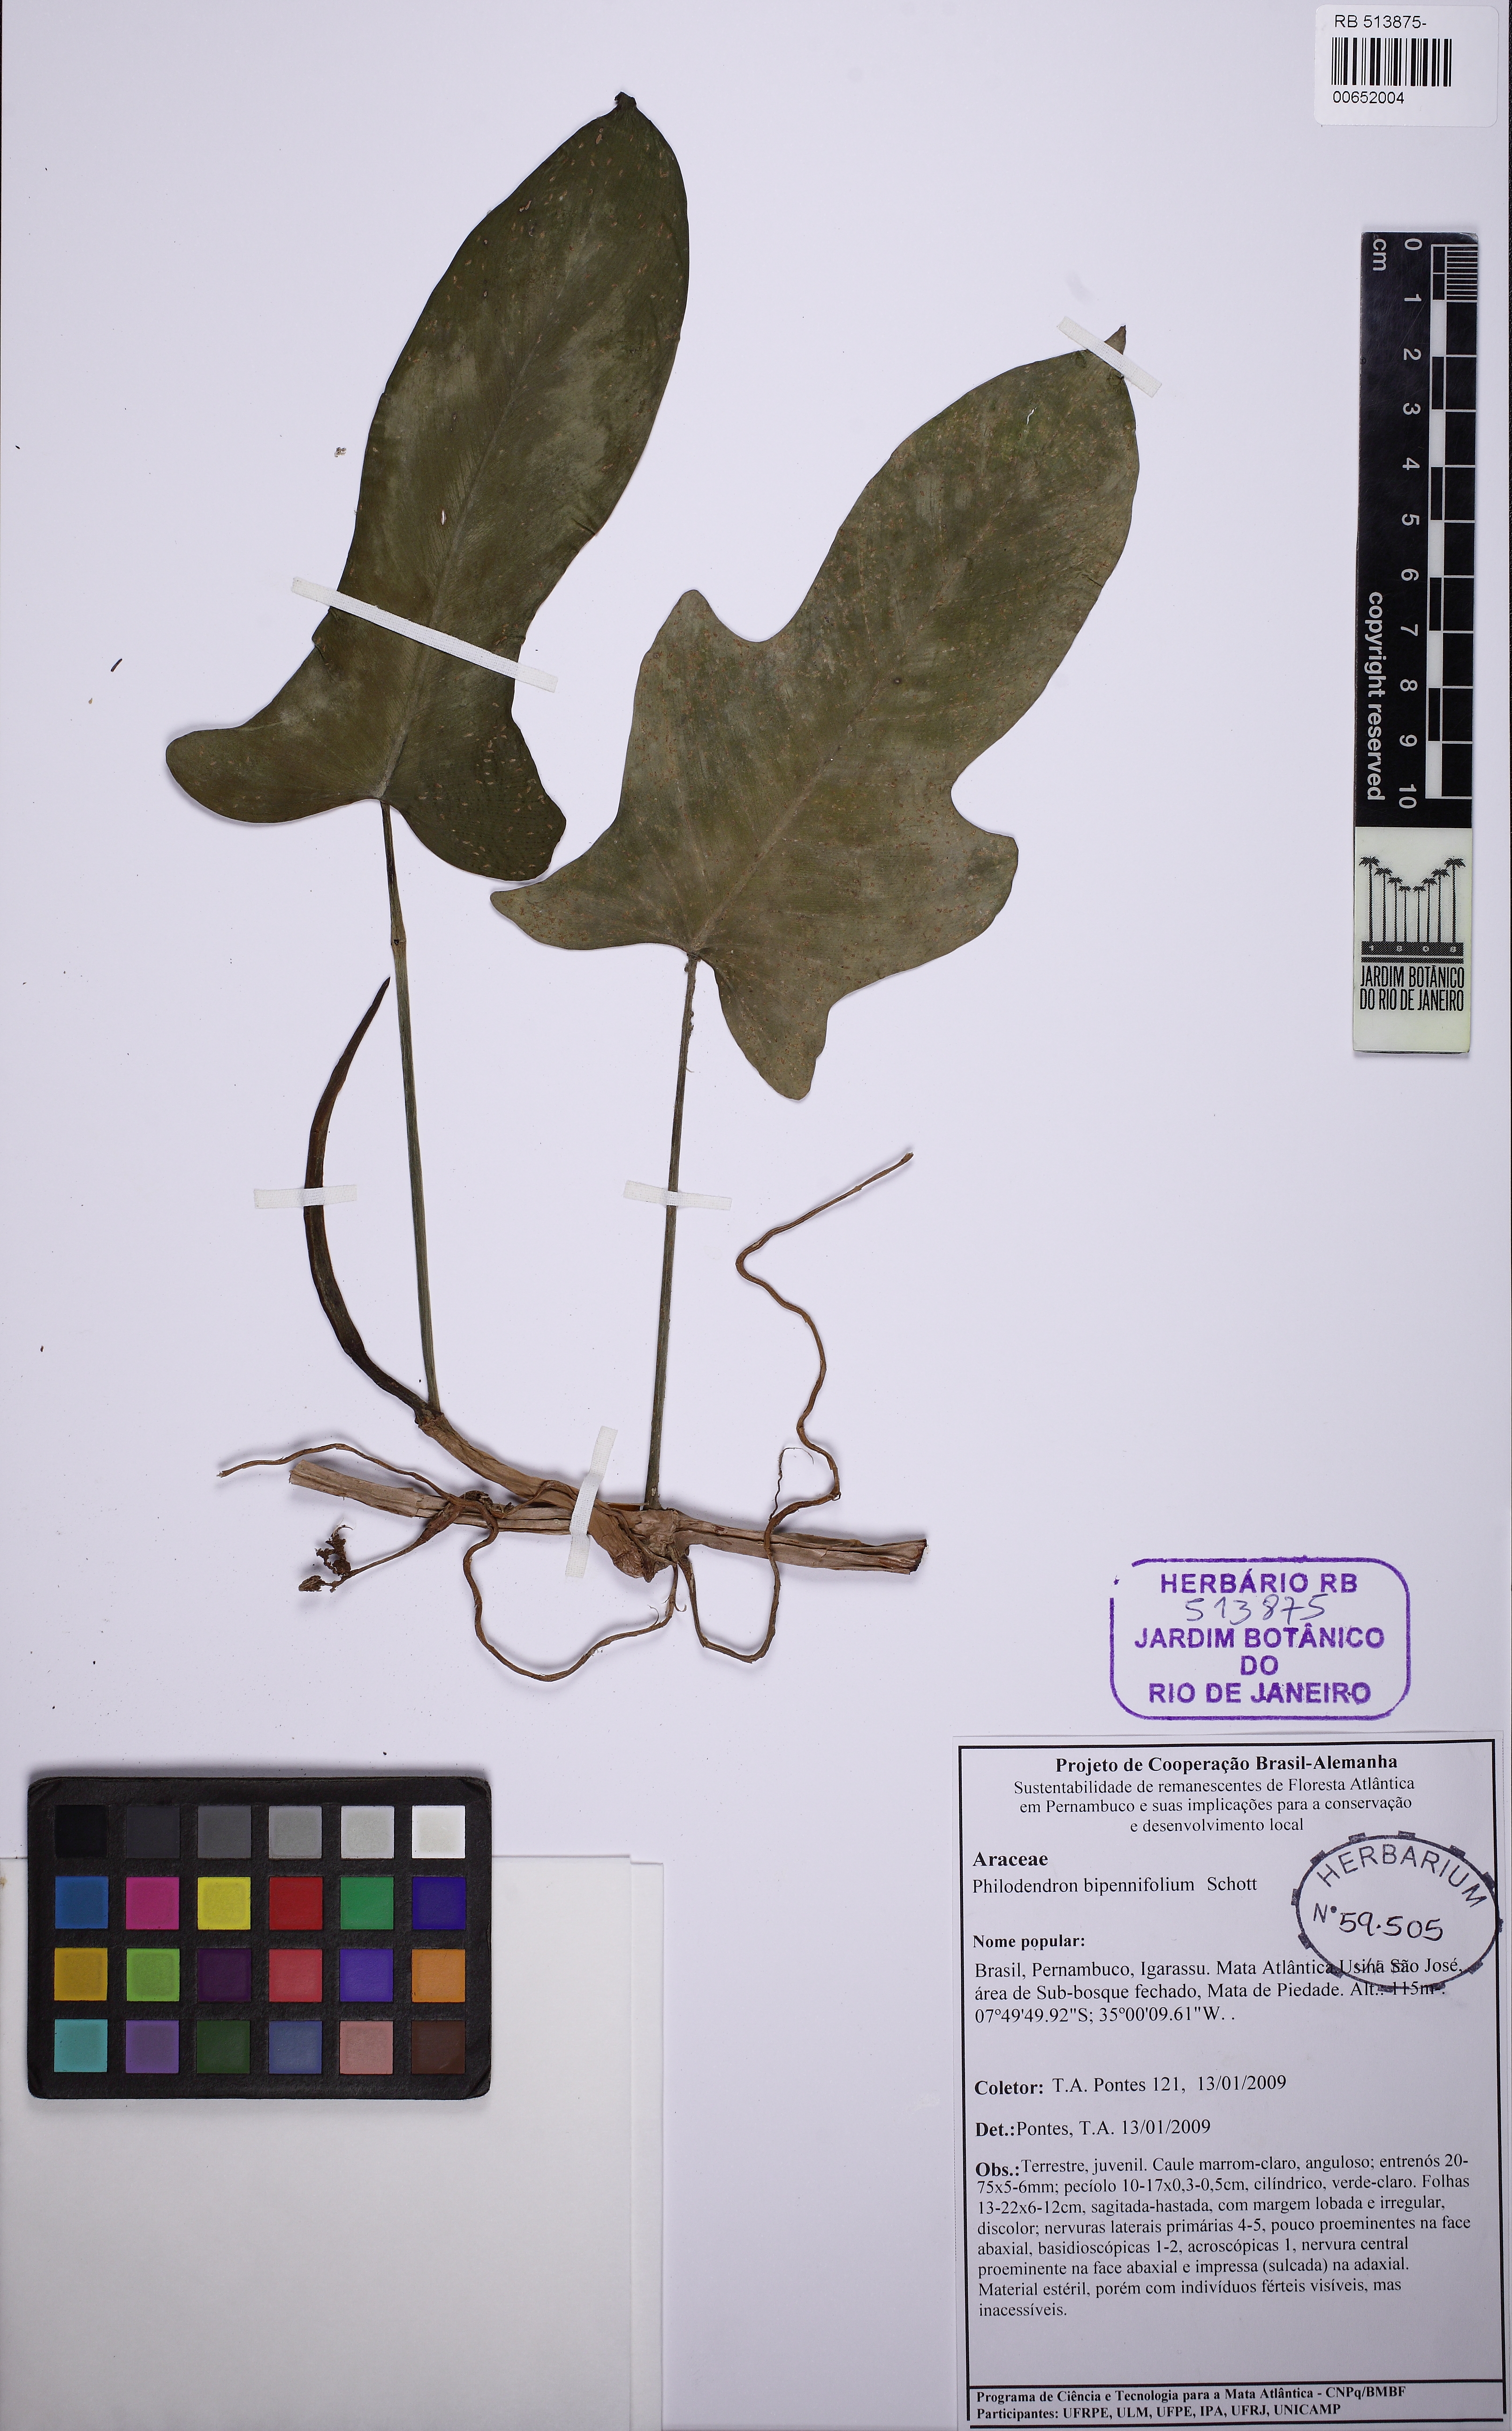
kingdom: Plantae
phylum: Tracheophyta
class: Liliopsida
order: Alismatales
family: Araceae
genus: Philodendron
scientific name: Philodendron bipennifolium
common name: Fiddle-leaf philodendron
